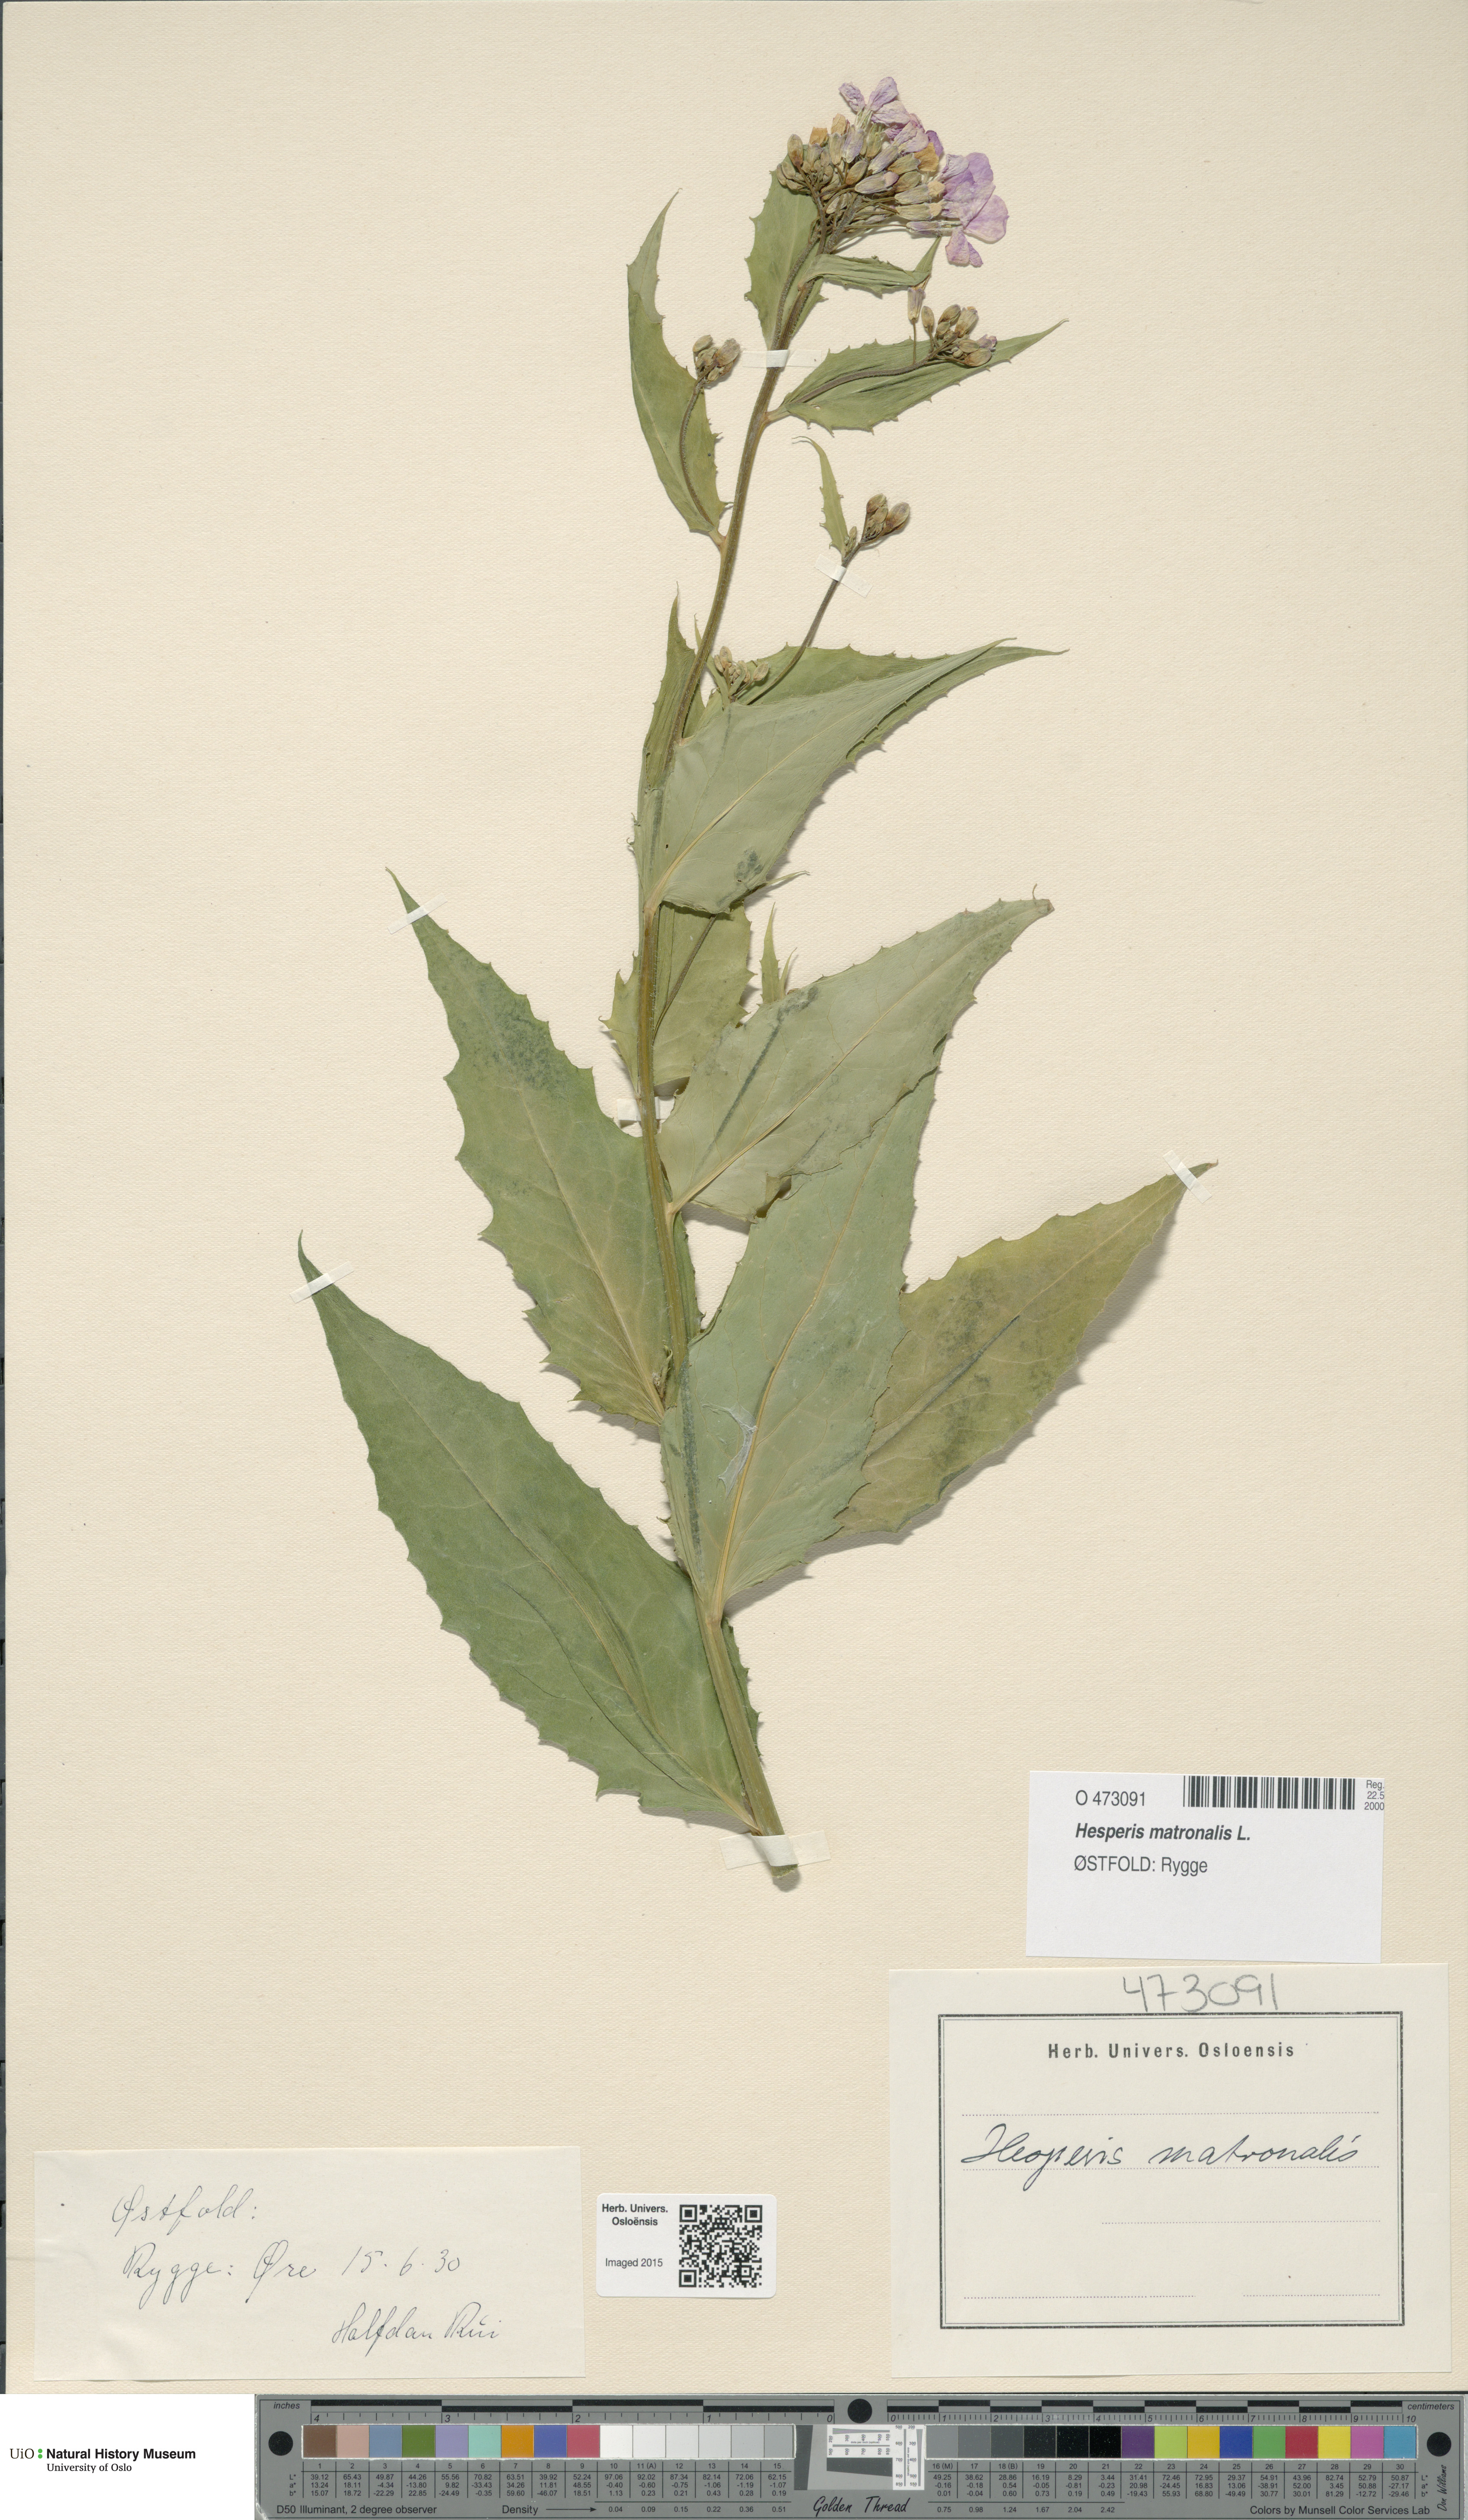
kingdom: Plantae
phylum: Tracheophyta
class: Magnoliopsida
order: Brassicales
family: Brassicaceae
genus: Hesperis
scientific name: Hesperis matronalis
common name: Dame's-violet
